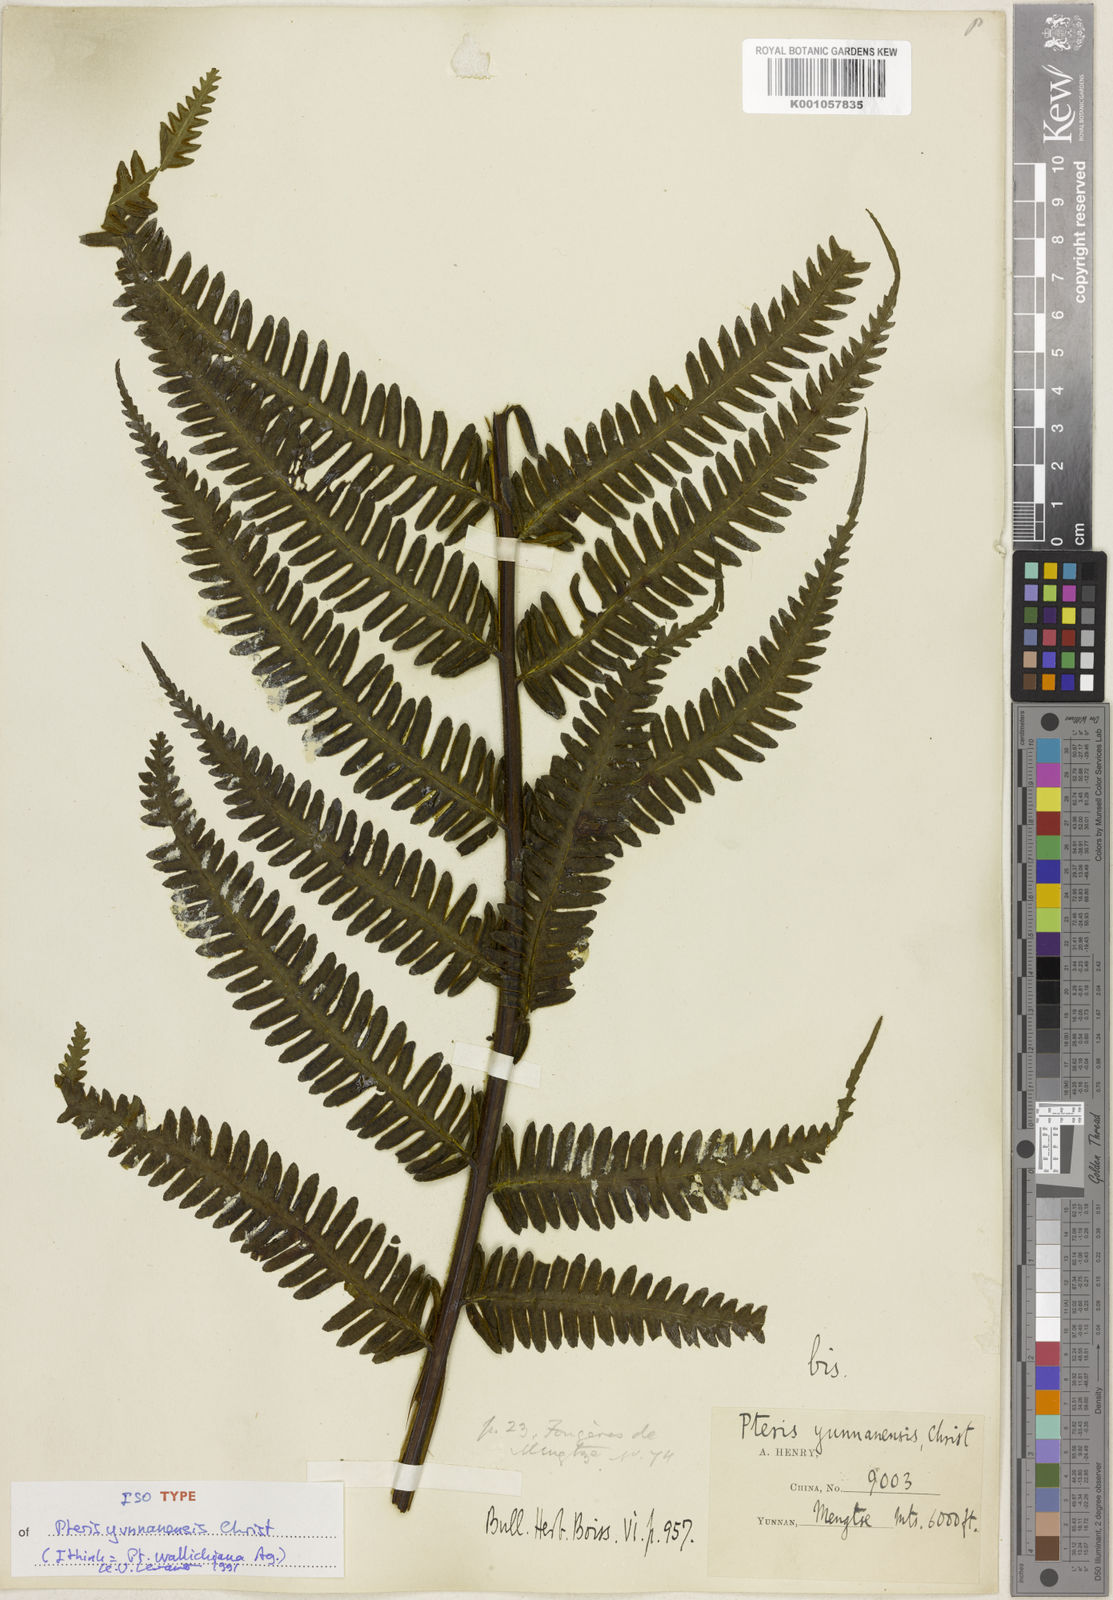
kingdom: Plantae
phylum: Tracheophyta
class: Polypodiopsida
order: Polypodiales
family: Pteridaceae
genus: Pteris
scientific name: Pteris longipes
